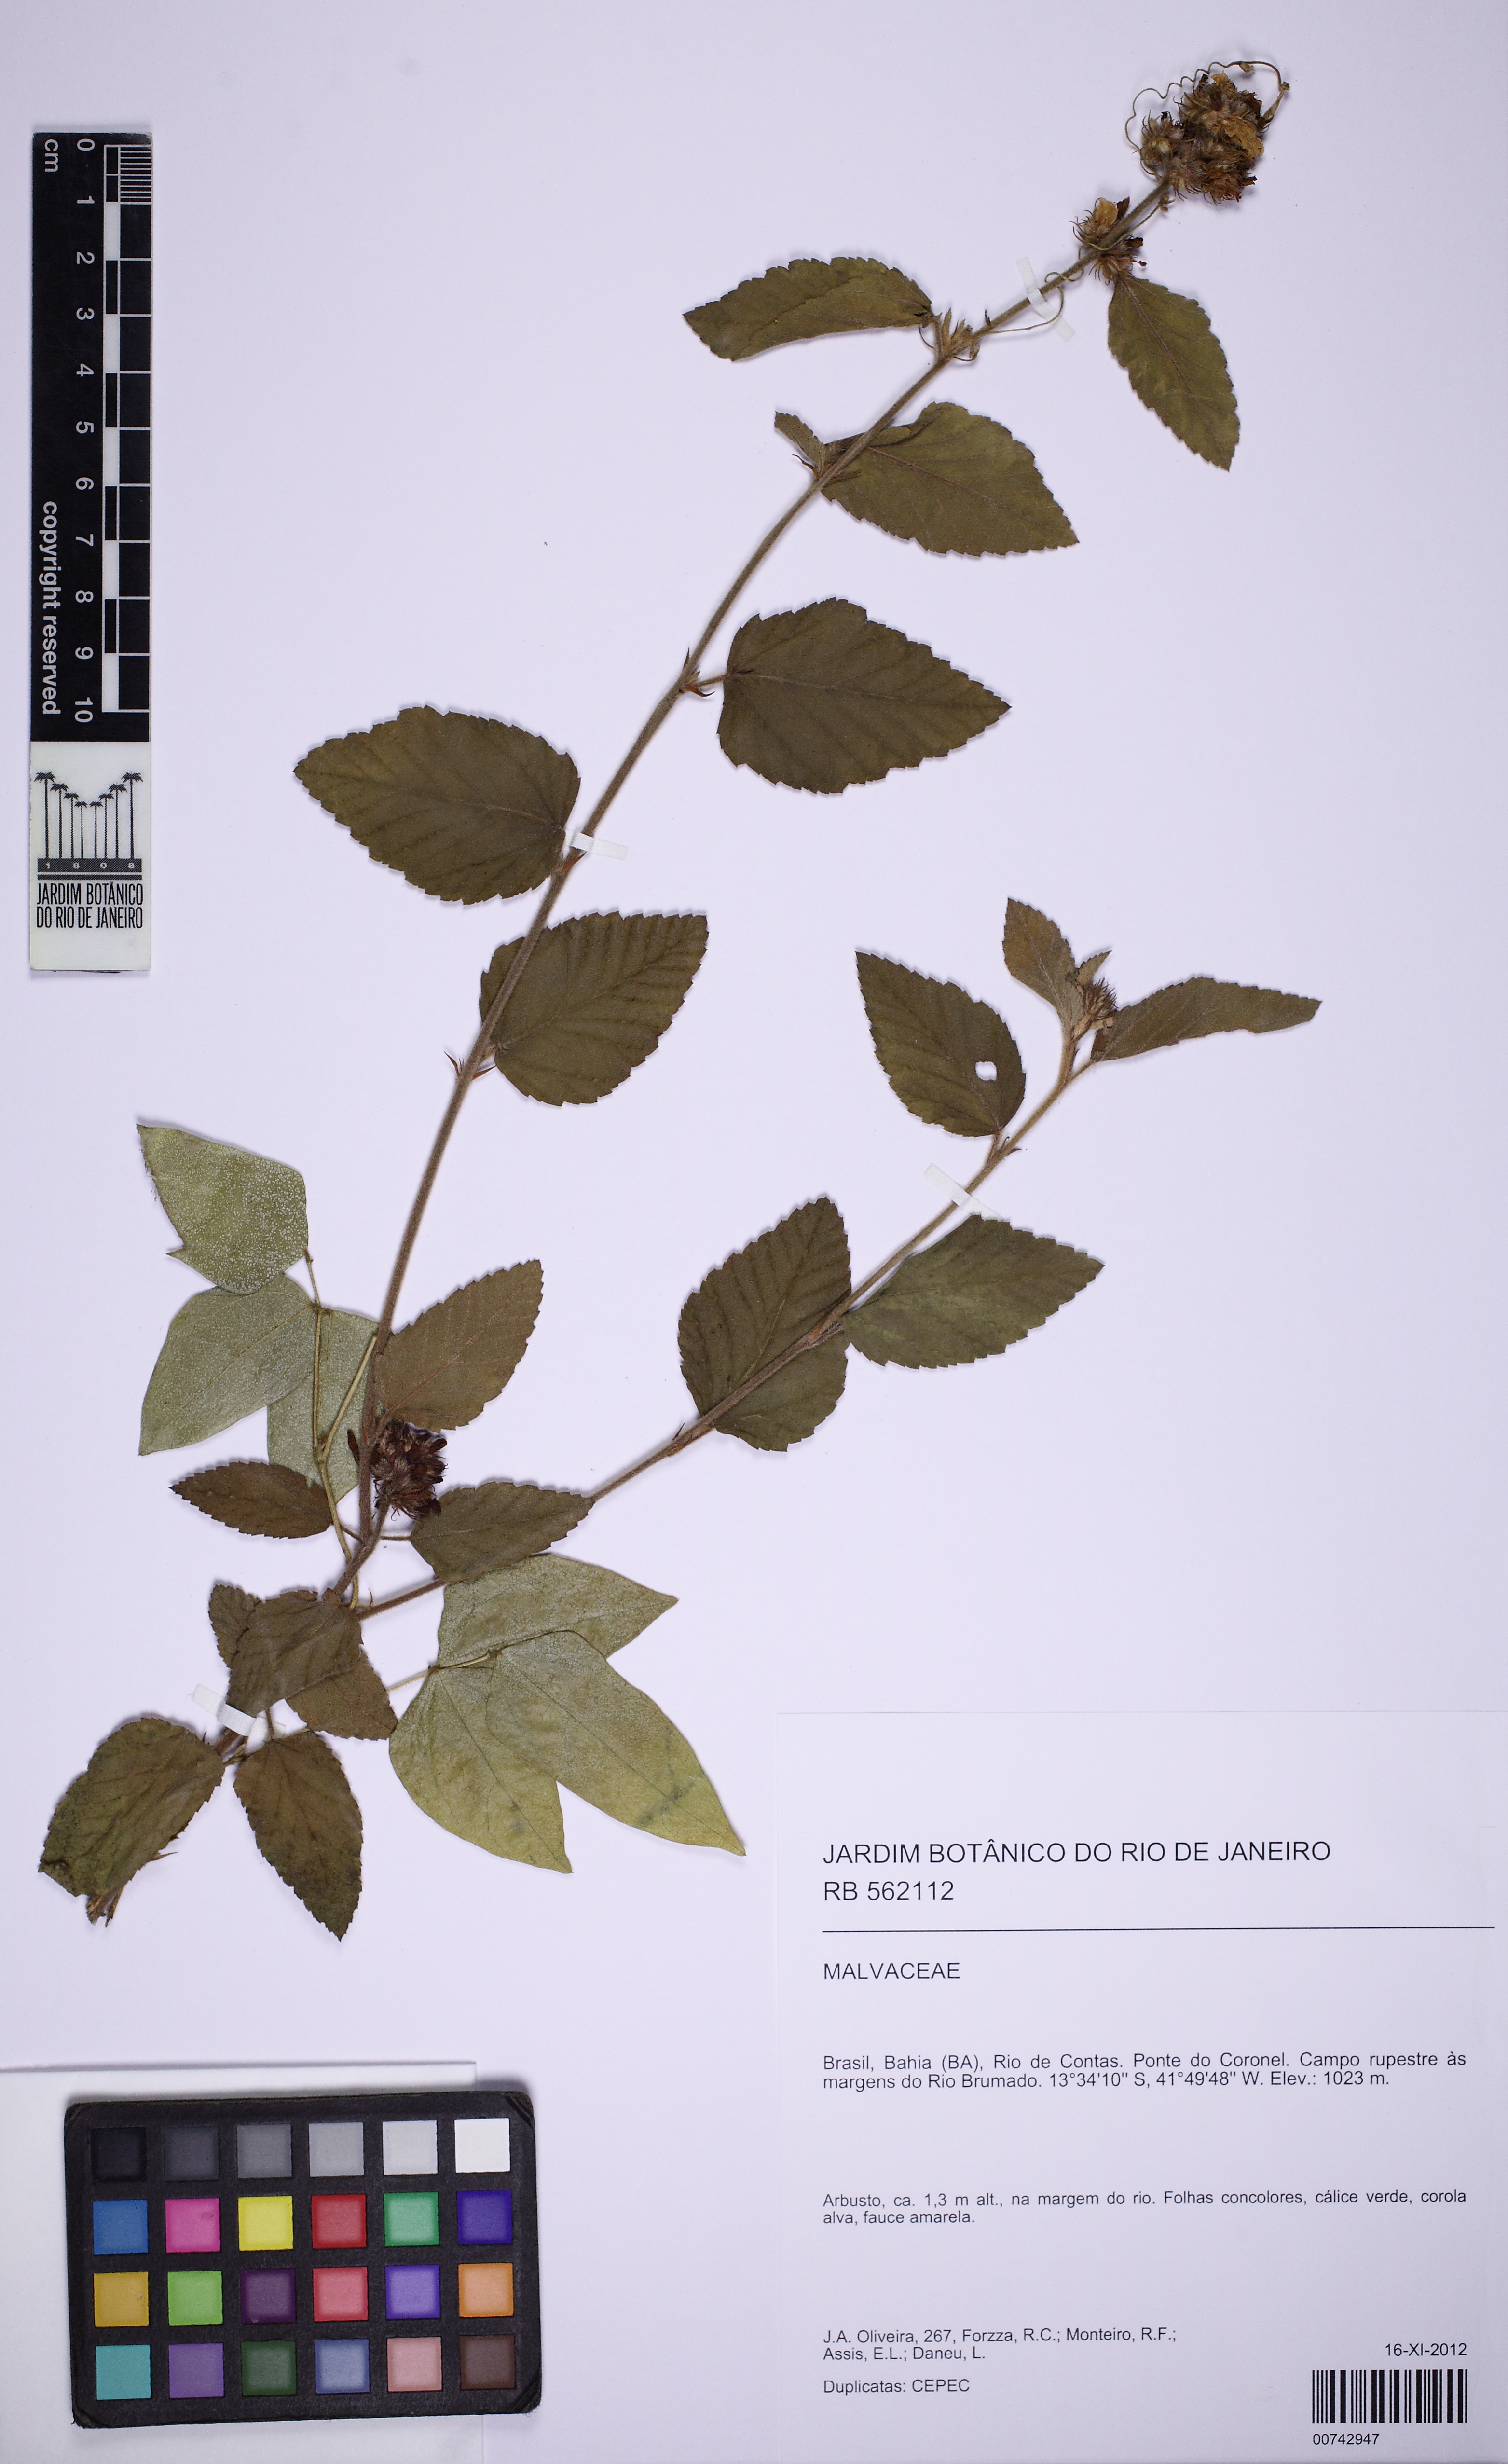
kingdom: Plantae
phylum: Tracheophyta
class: Magnoliopsida
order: Malvales
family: Malvaceae
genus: Melochia
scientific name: Melochia spicata
